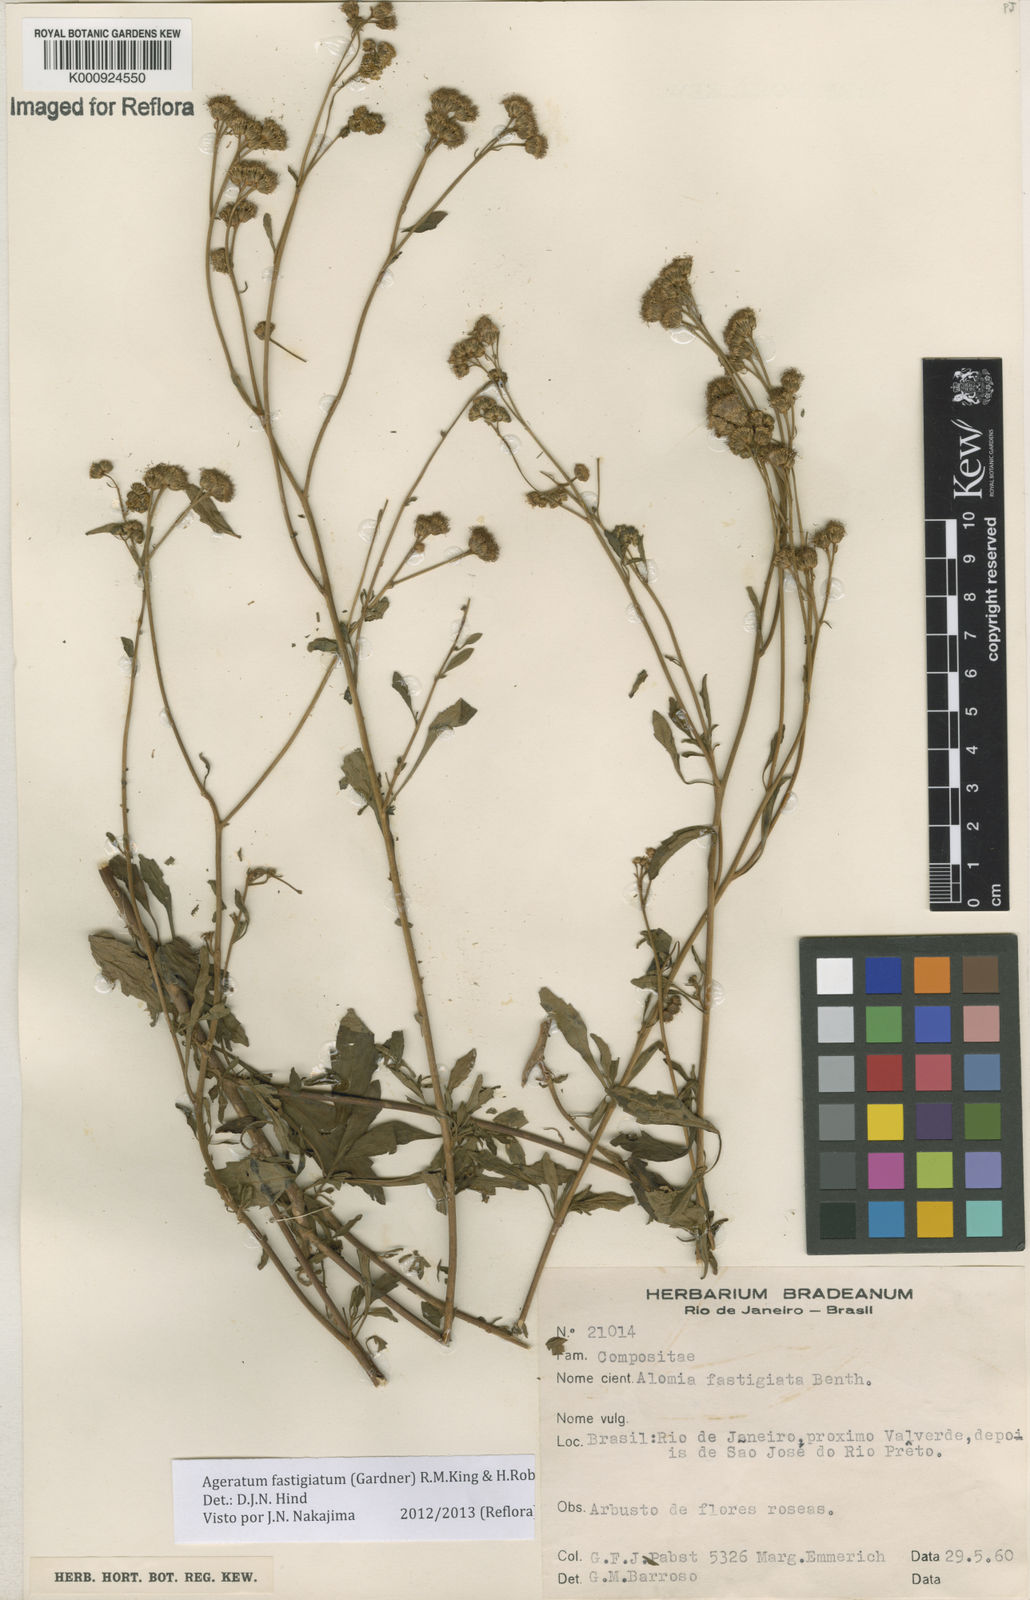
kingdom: Plantae
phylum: Tracheophyta
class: Magnoliopsida
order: Asterales
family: Asteraceae
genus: Ageratum
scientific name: Ageratum fastigiatum
